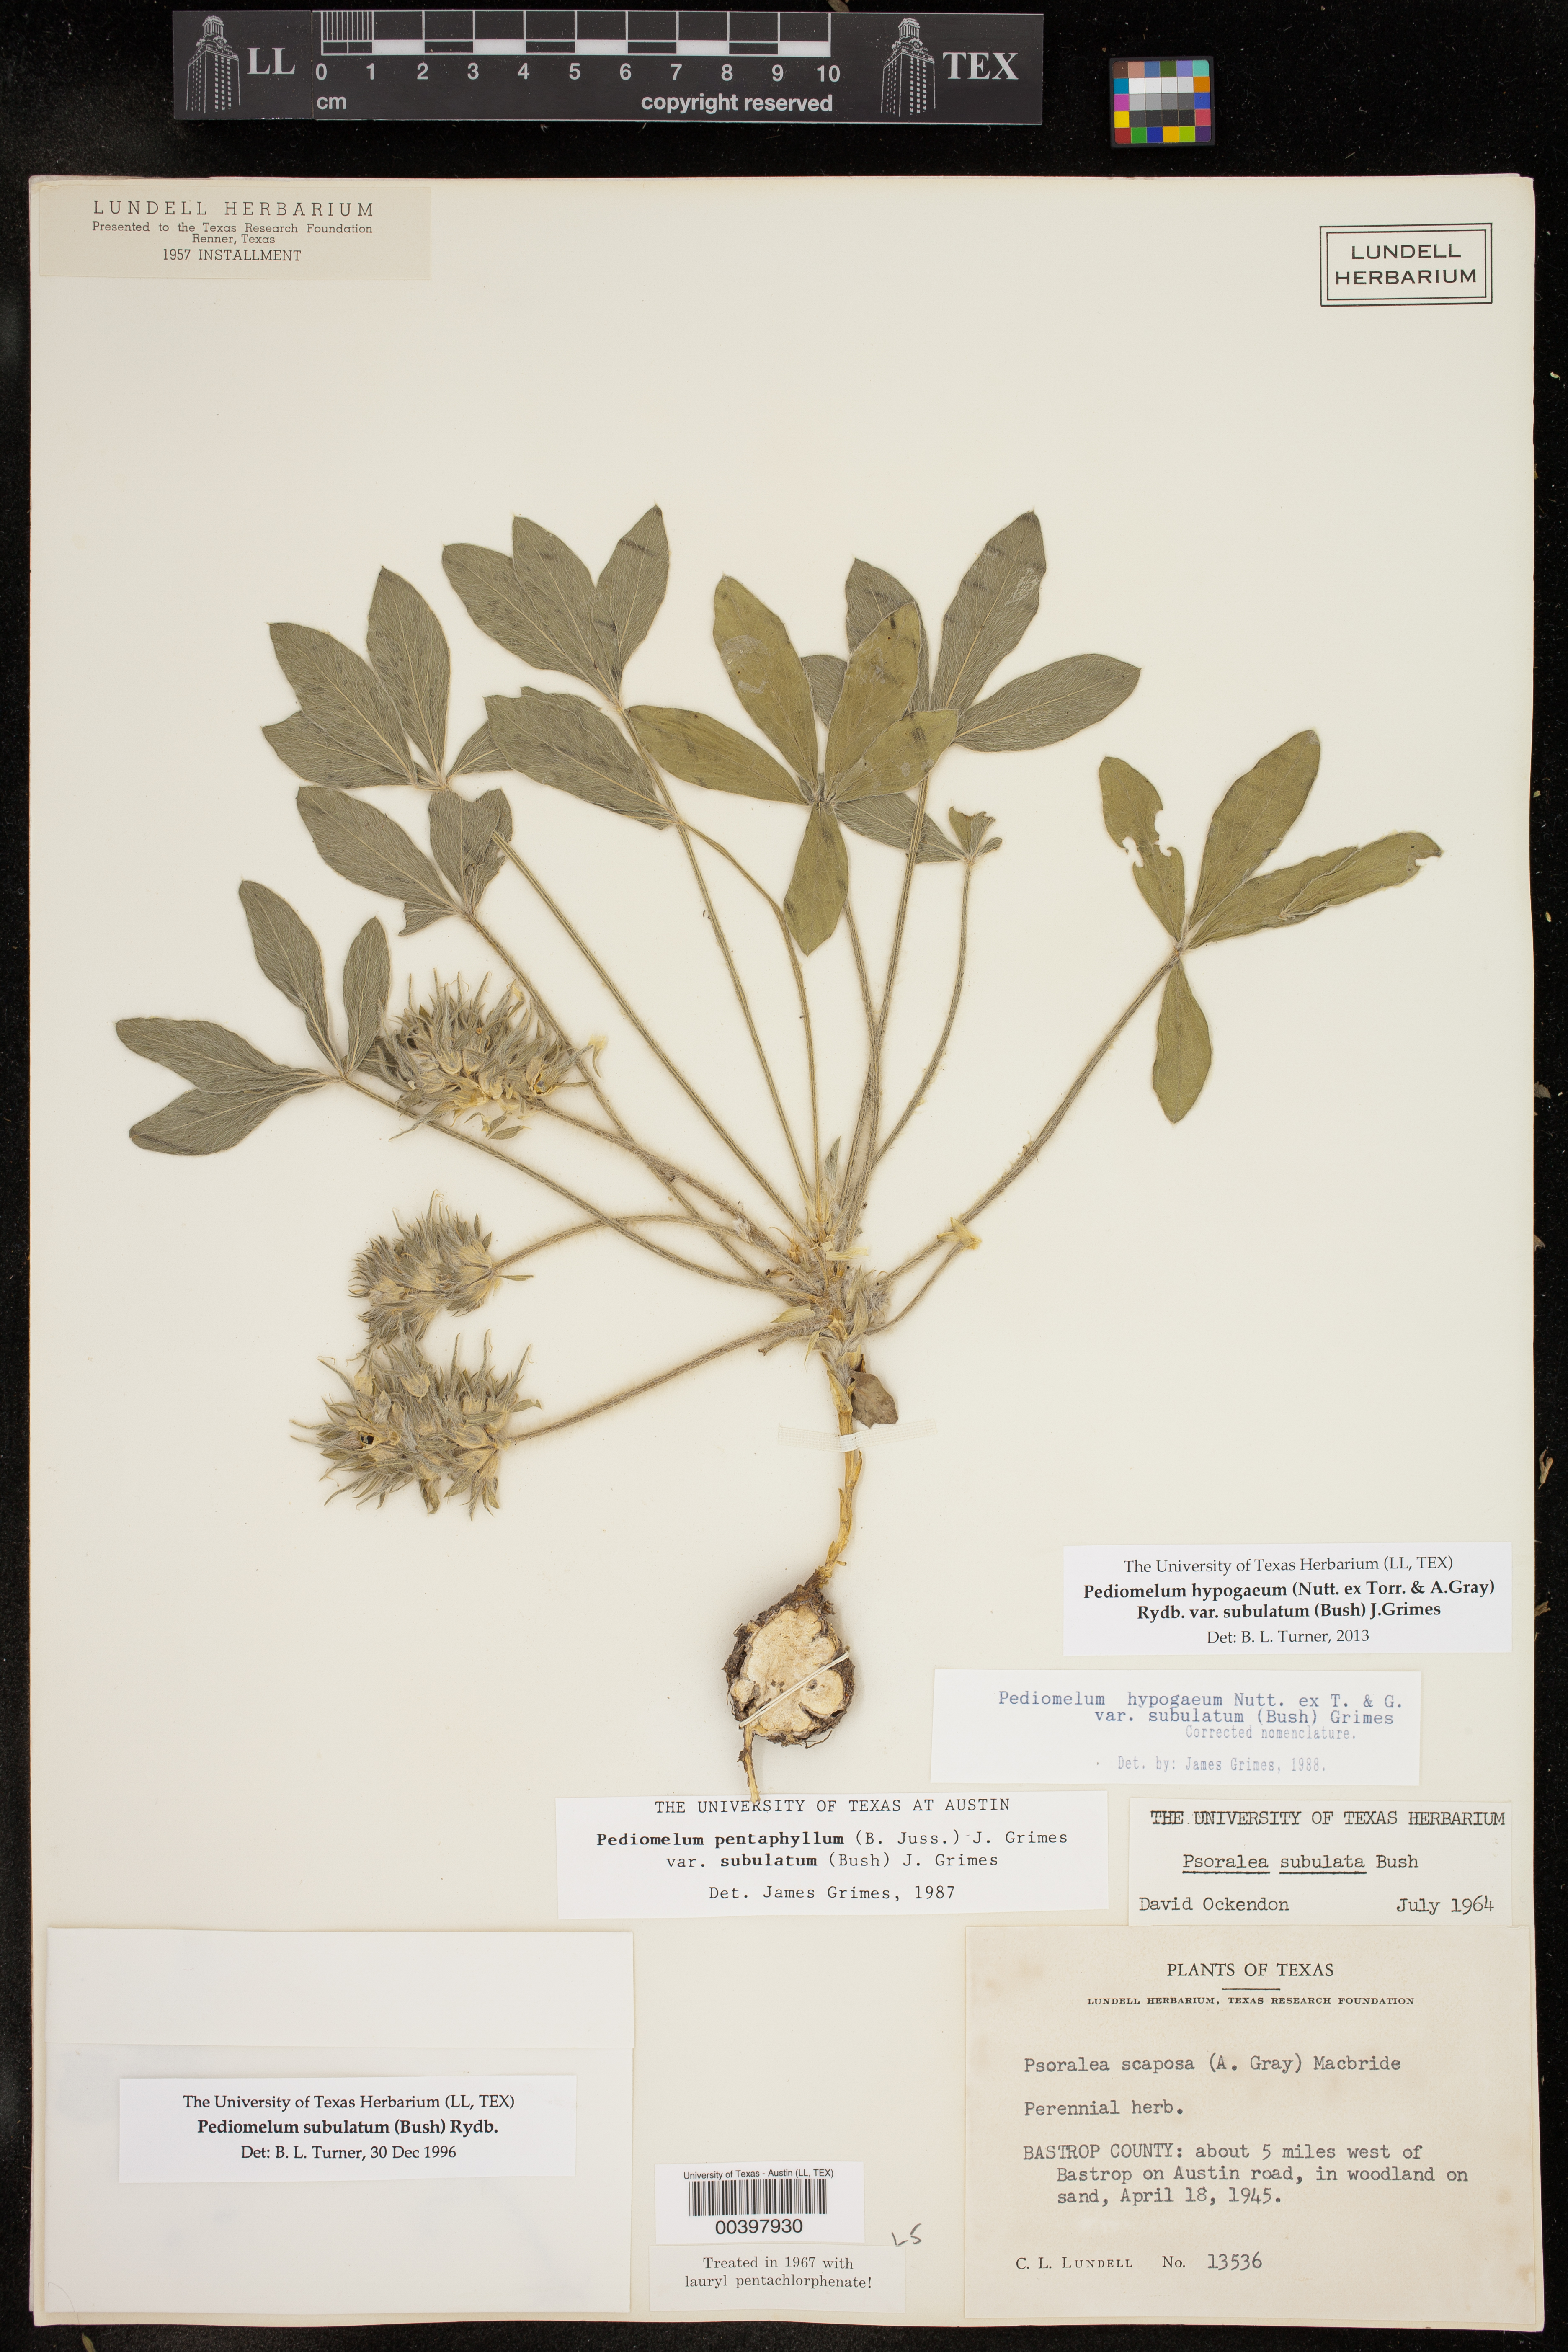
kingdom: Plantae
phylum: Tracheophyta
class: Magnoliopsida
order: Fabales
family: Fabaceae
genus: Pediomelum
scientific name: Pediomelum hypogaeum
